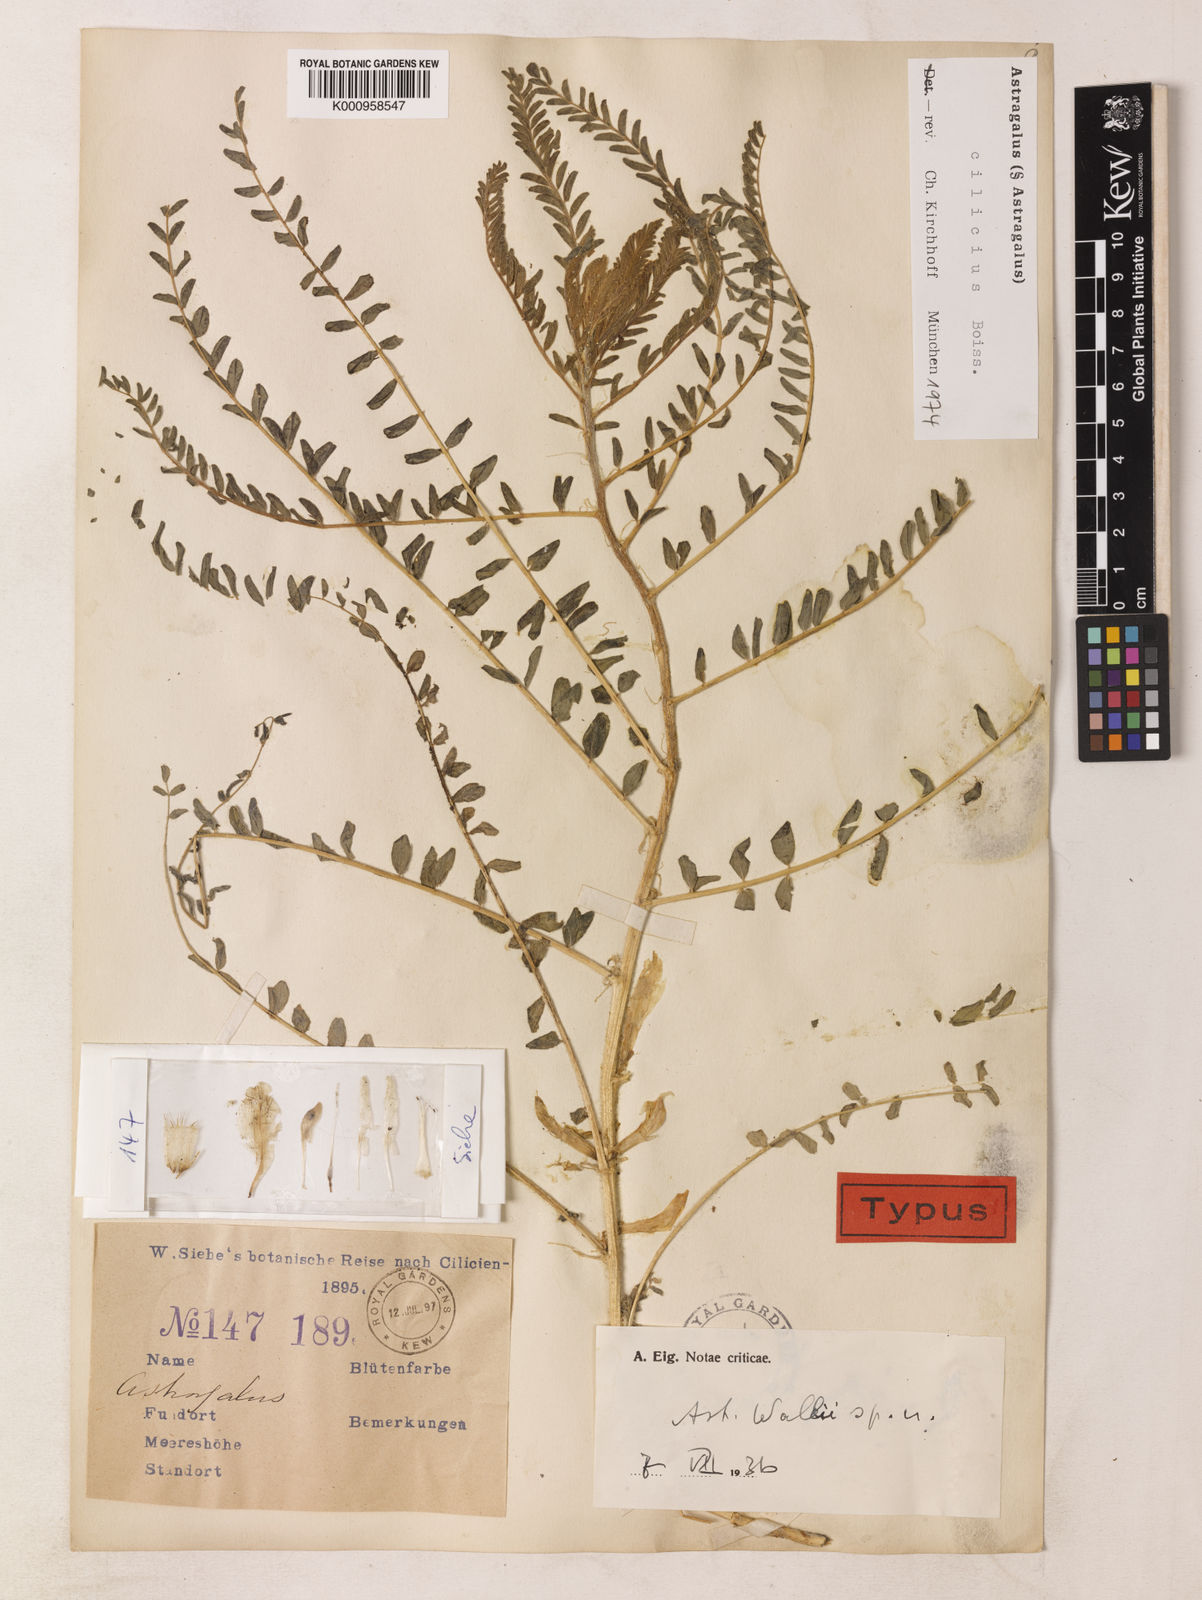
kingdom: Plantae
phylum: Tracheophyta
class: Magnoliopsida
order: Fabales
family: Fabaceae
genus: Astragalus
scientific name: Astragalus cilicius
